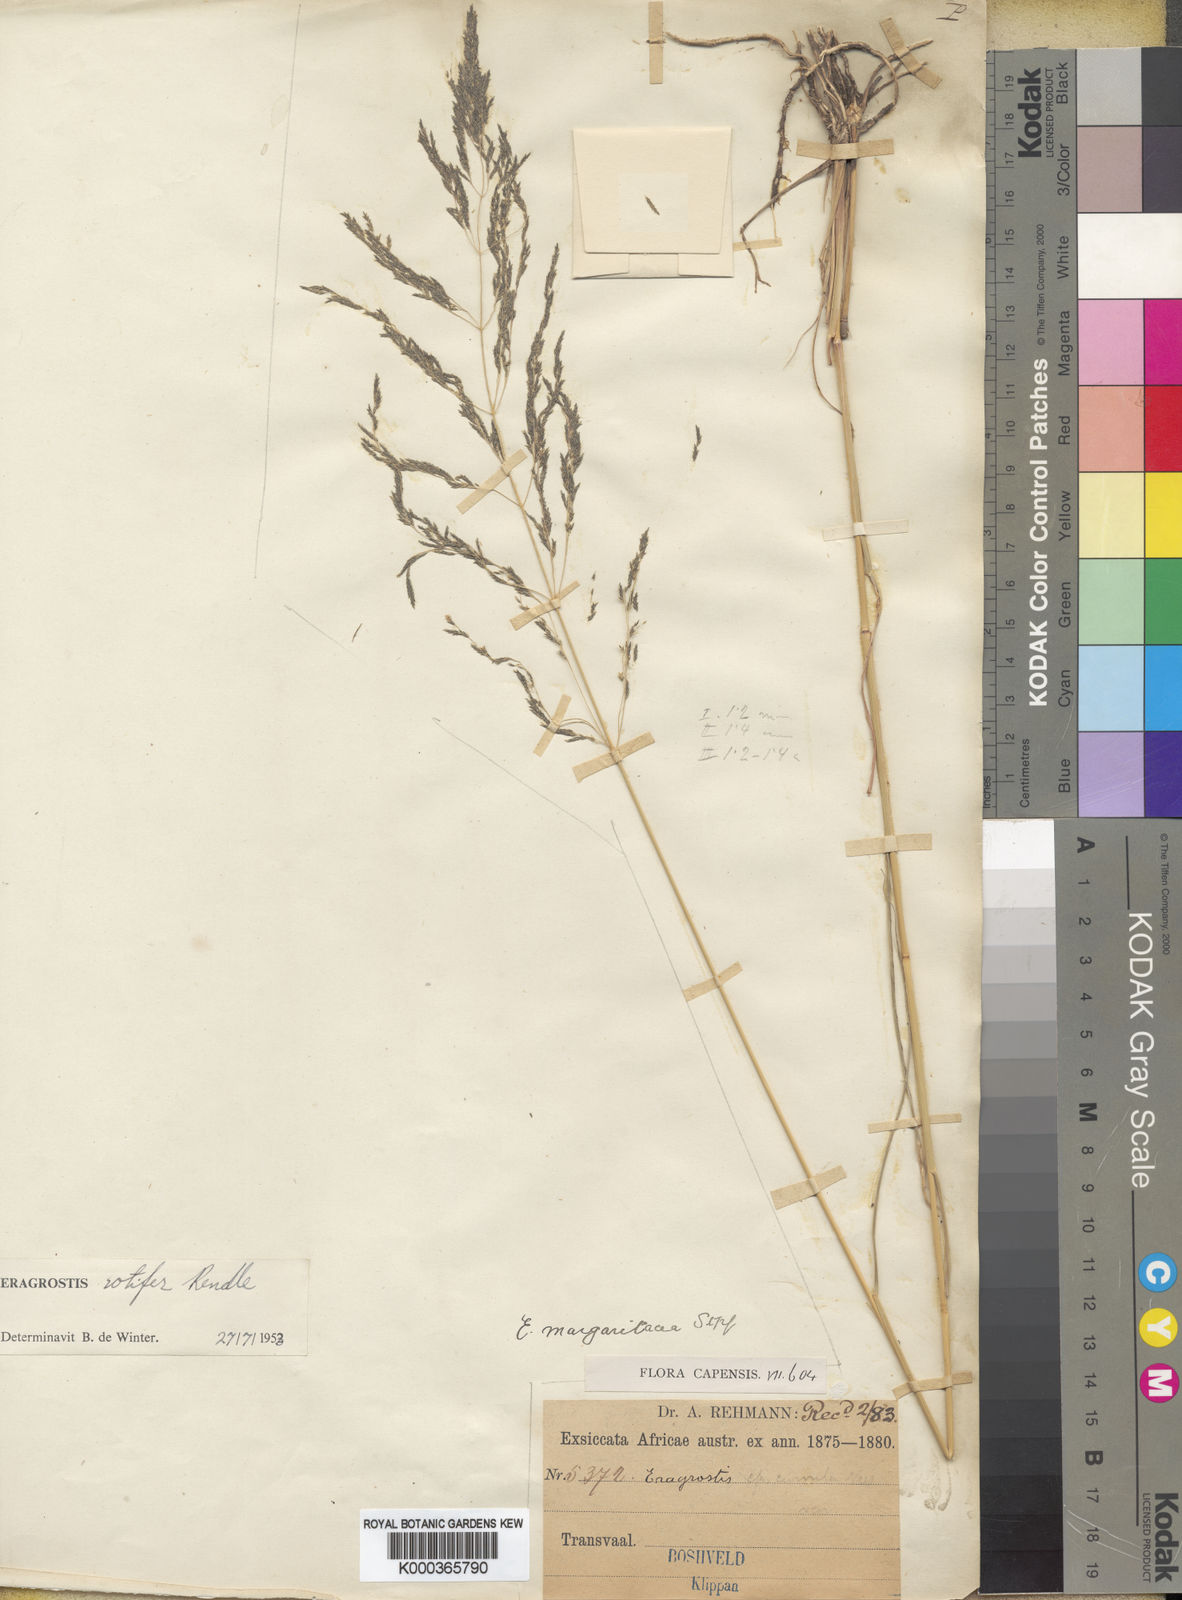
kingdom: Plantae
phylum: Tracheophyta
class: Liliopsida
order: Poales
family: Poaceae
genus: Eragrostis
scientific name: Eragrostis rotifer
